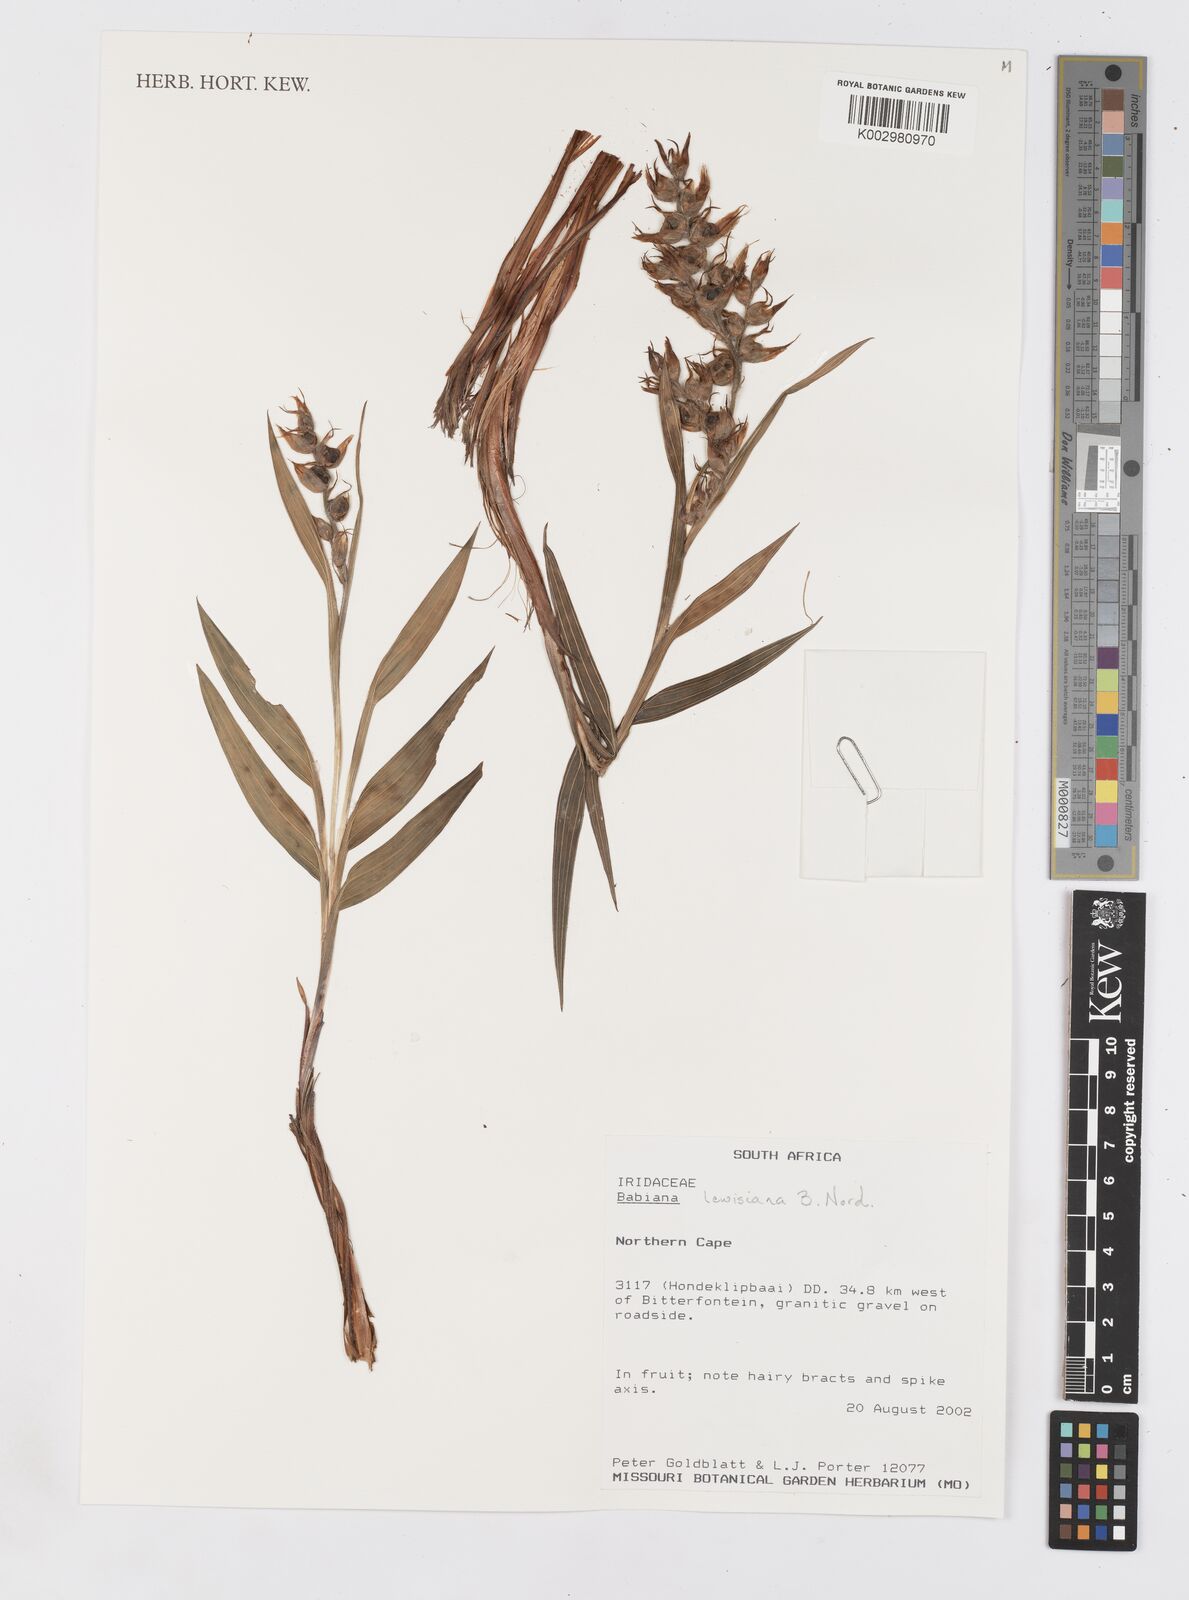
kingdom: Plantae
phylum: Tracheophyta
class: Liliopsida
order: Asparagales
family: Iridaceae
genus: Babiana
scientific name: Babiana lewisiana
